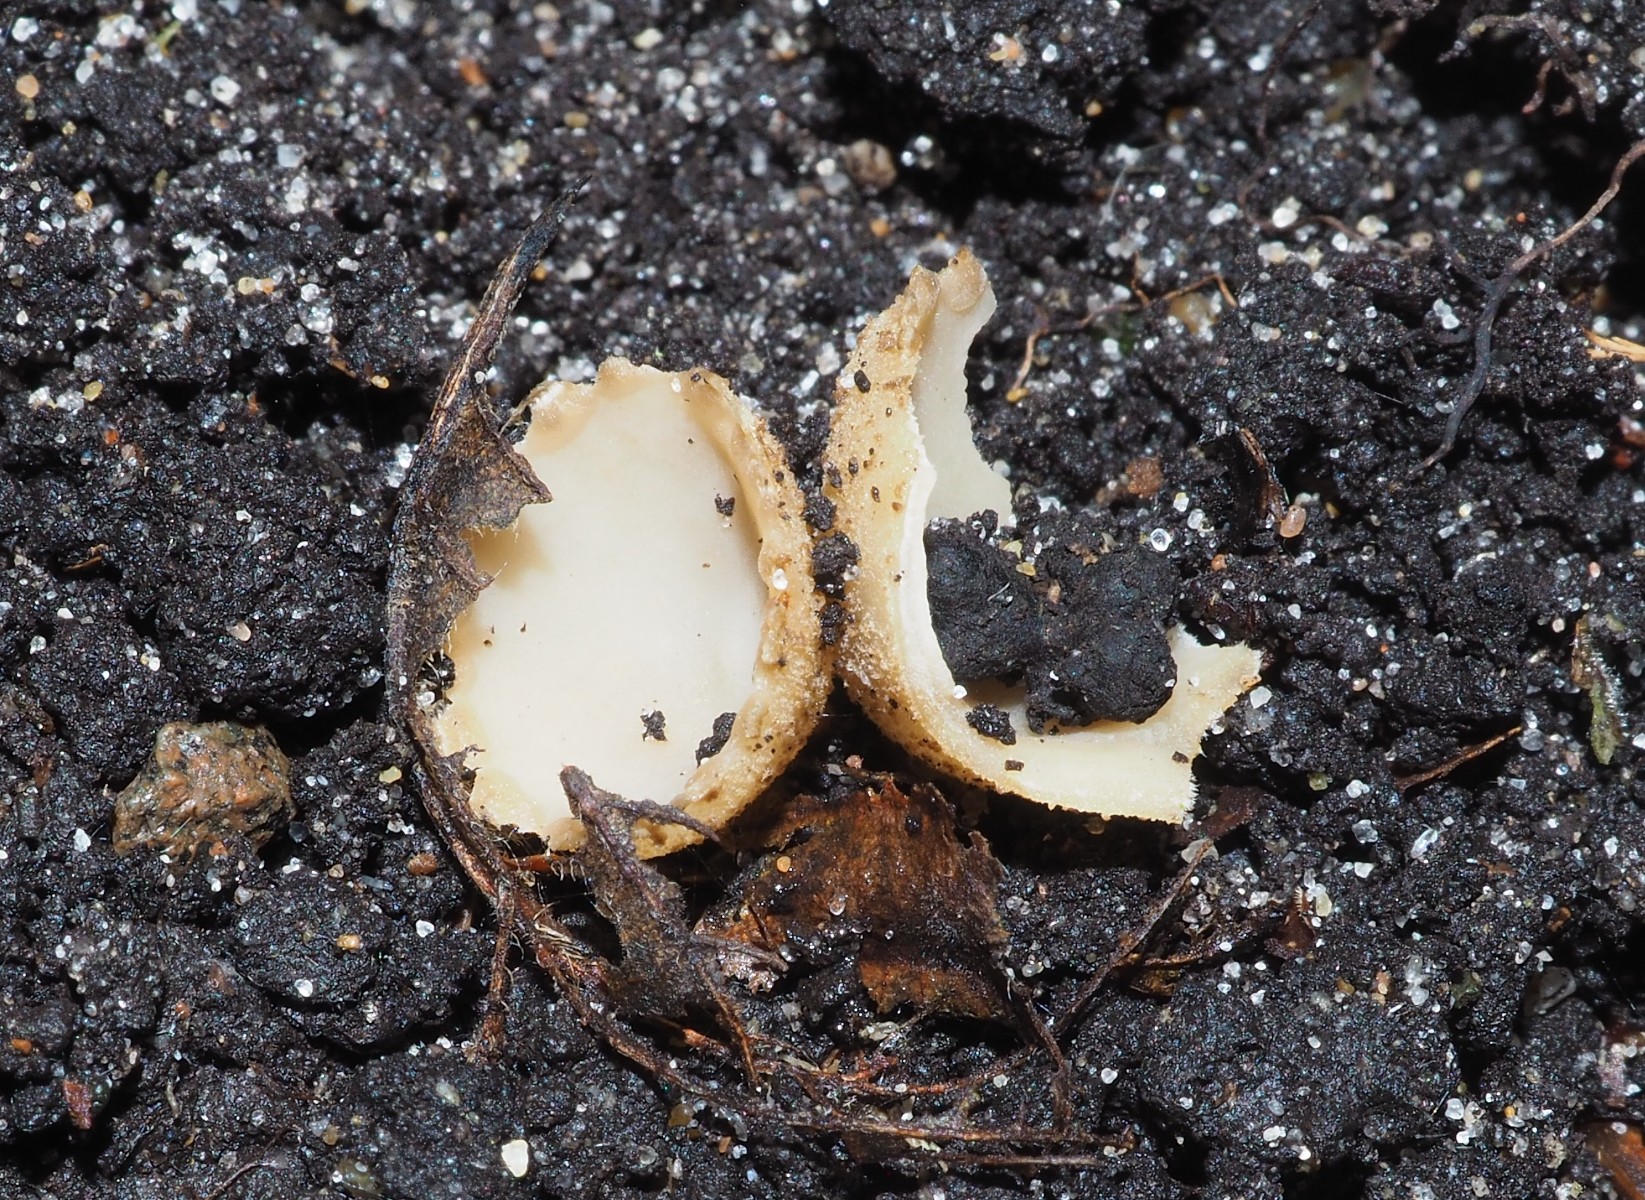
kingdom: Fungi
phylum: Ascomycota
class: Pezizomycetes
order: Pezizales
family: Pyronemataceae
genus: Tarzetta
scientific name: Tarzetta cupularis
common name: gulbrun pokalbæger
